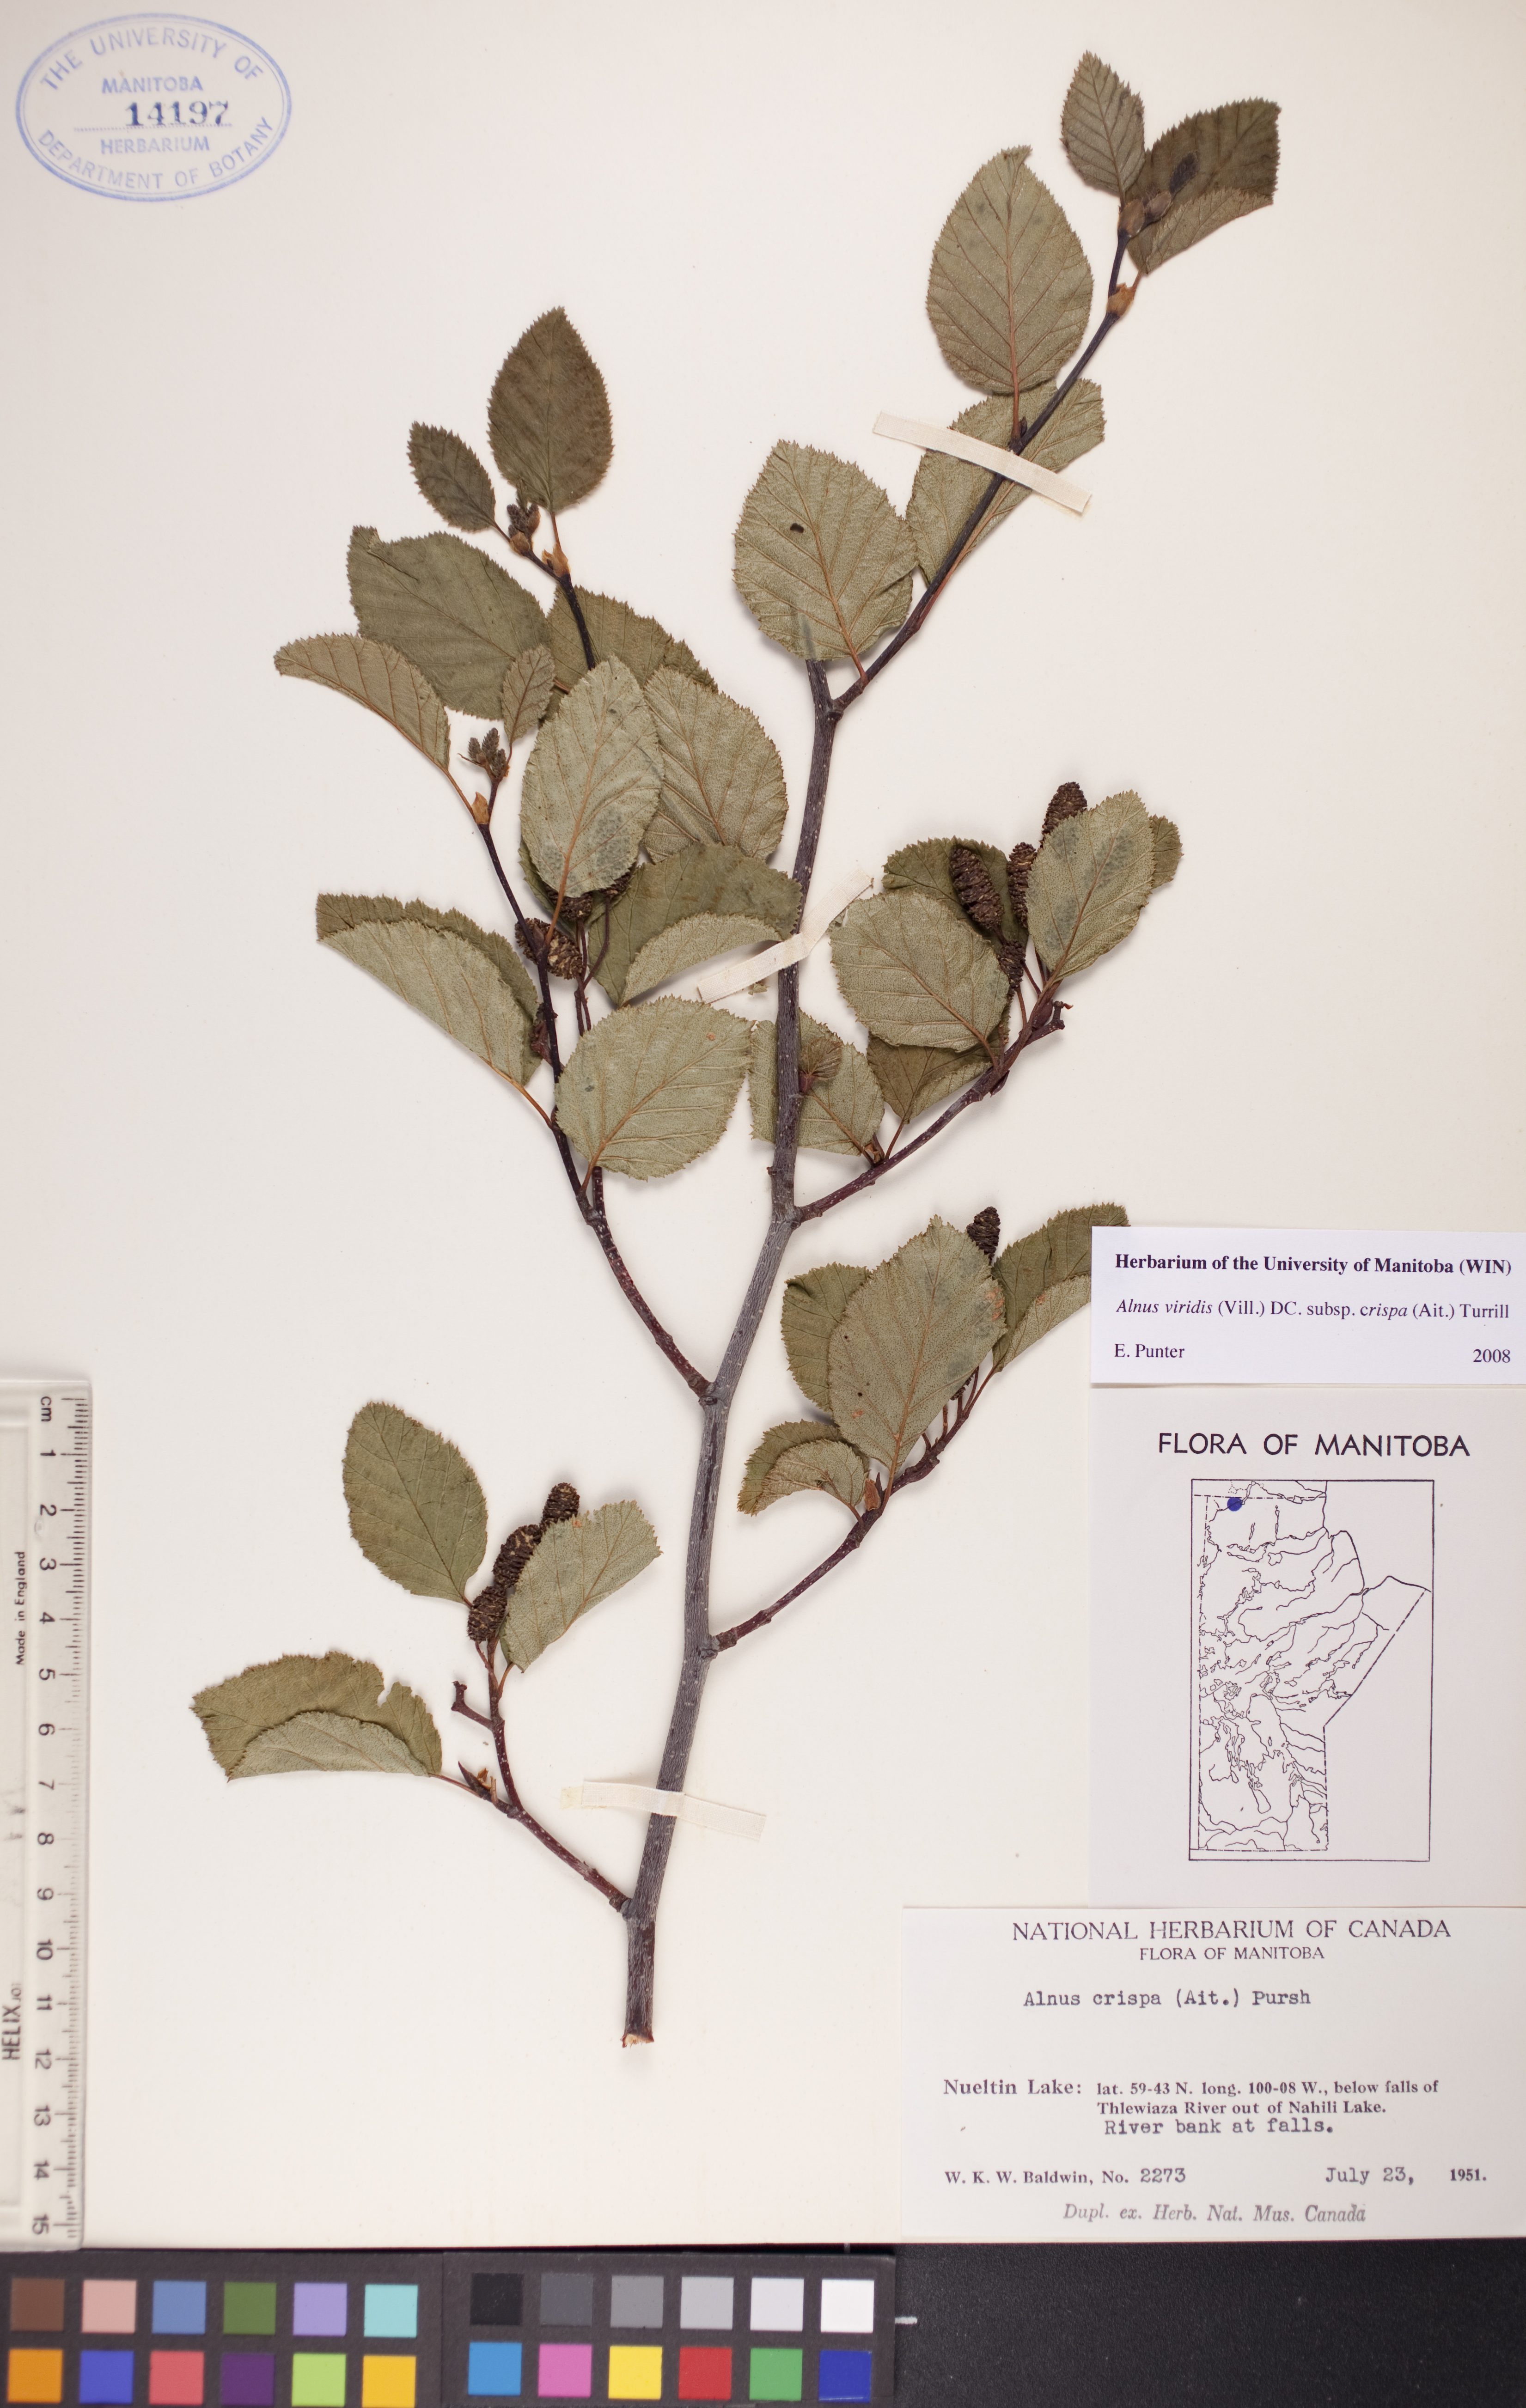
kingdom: Plantae
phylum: Tracheophyta
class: Magnoliopsida
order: Fagales
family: Betulaceae
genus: Alnus
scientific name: Alnus alnobetula
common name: Green alder
